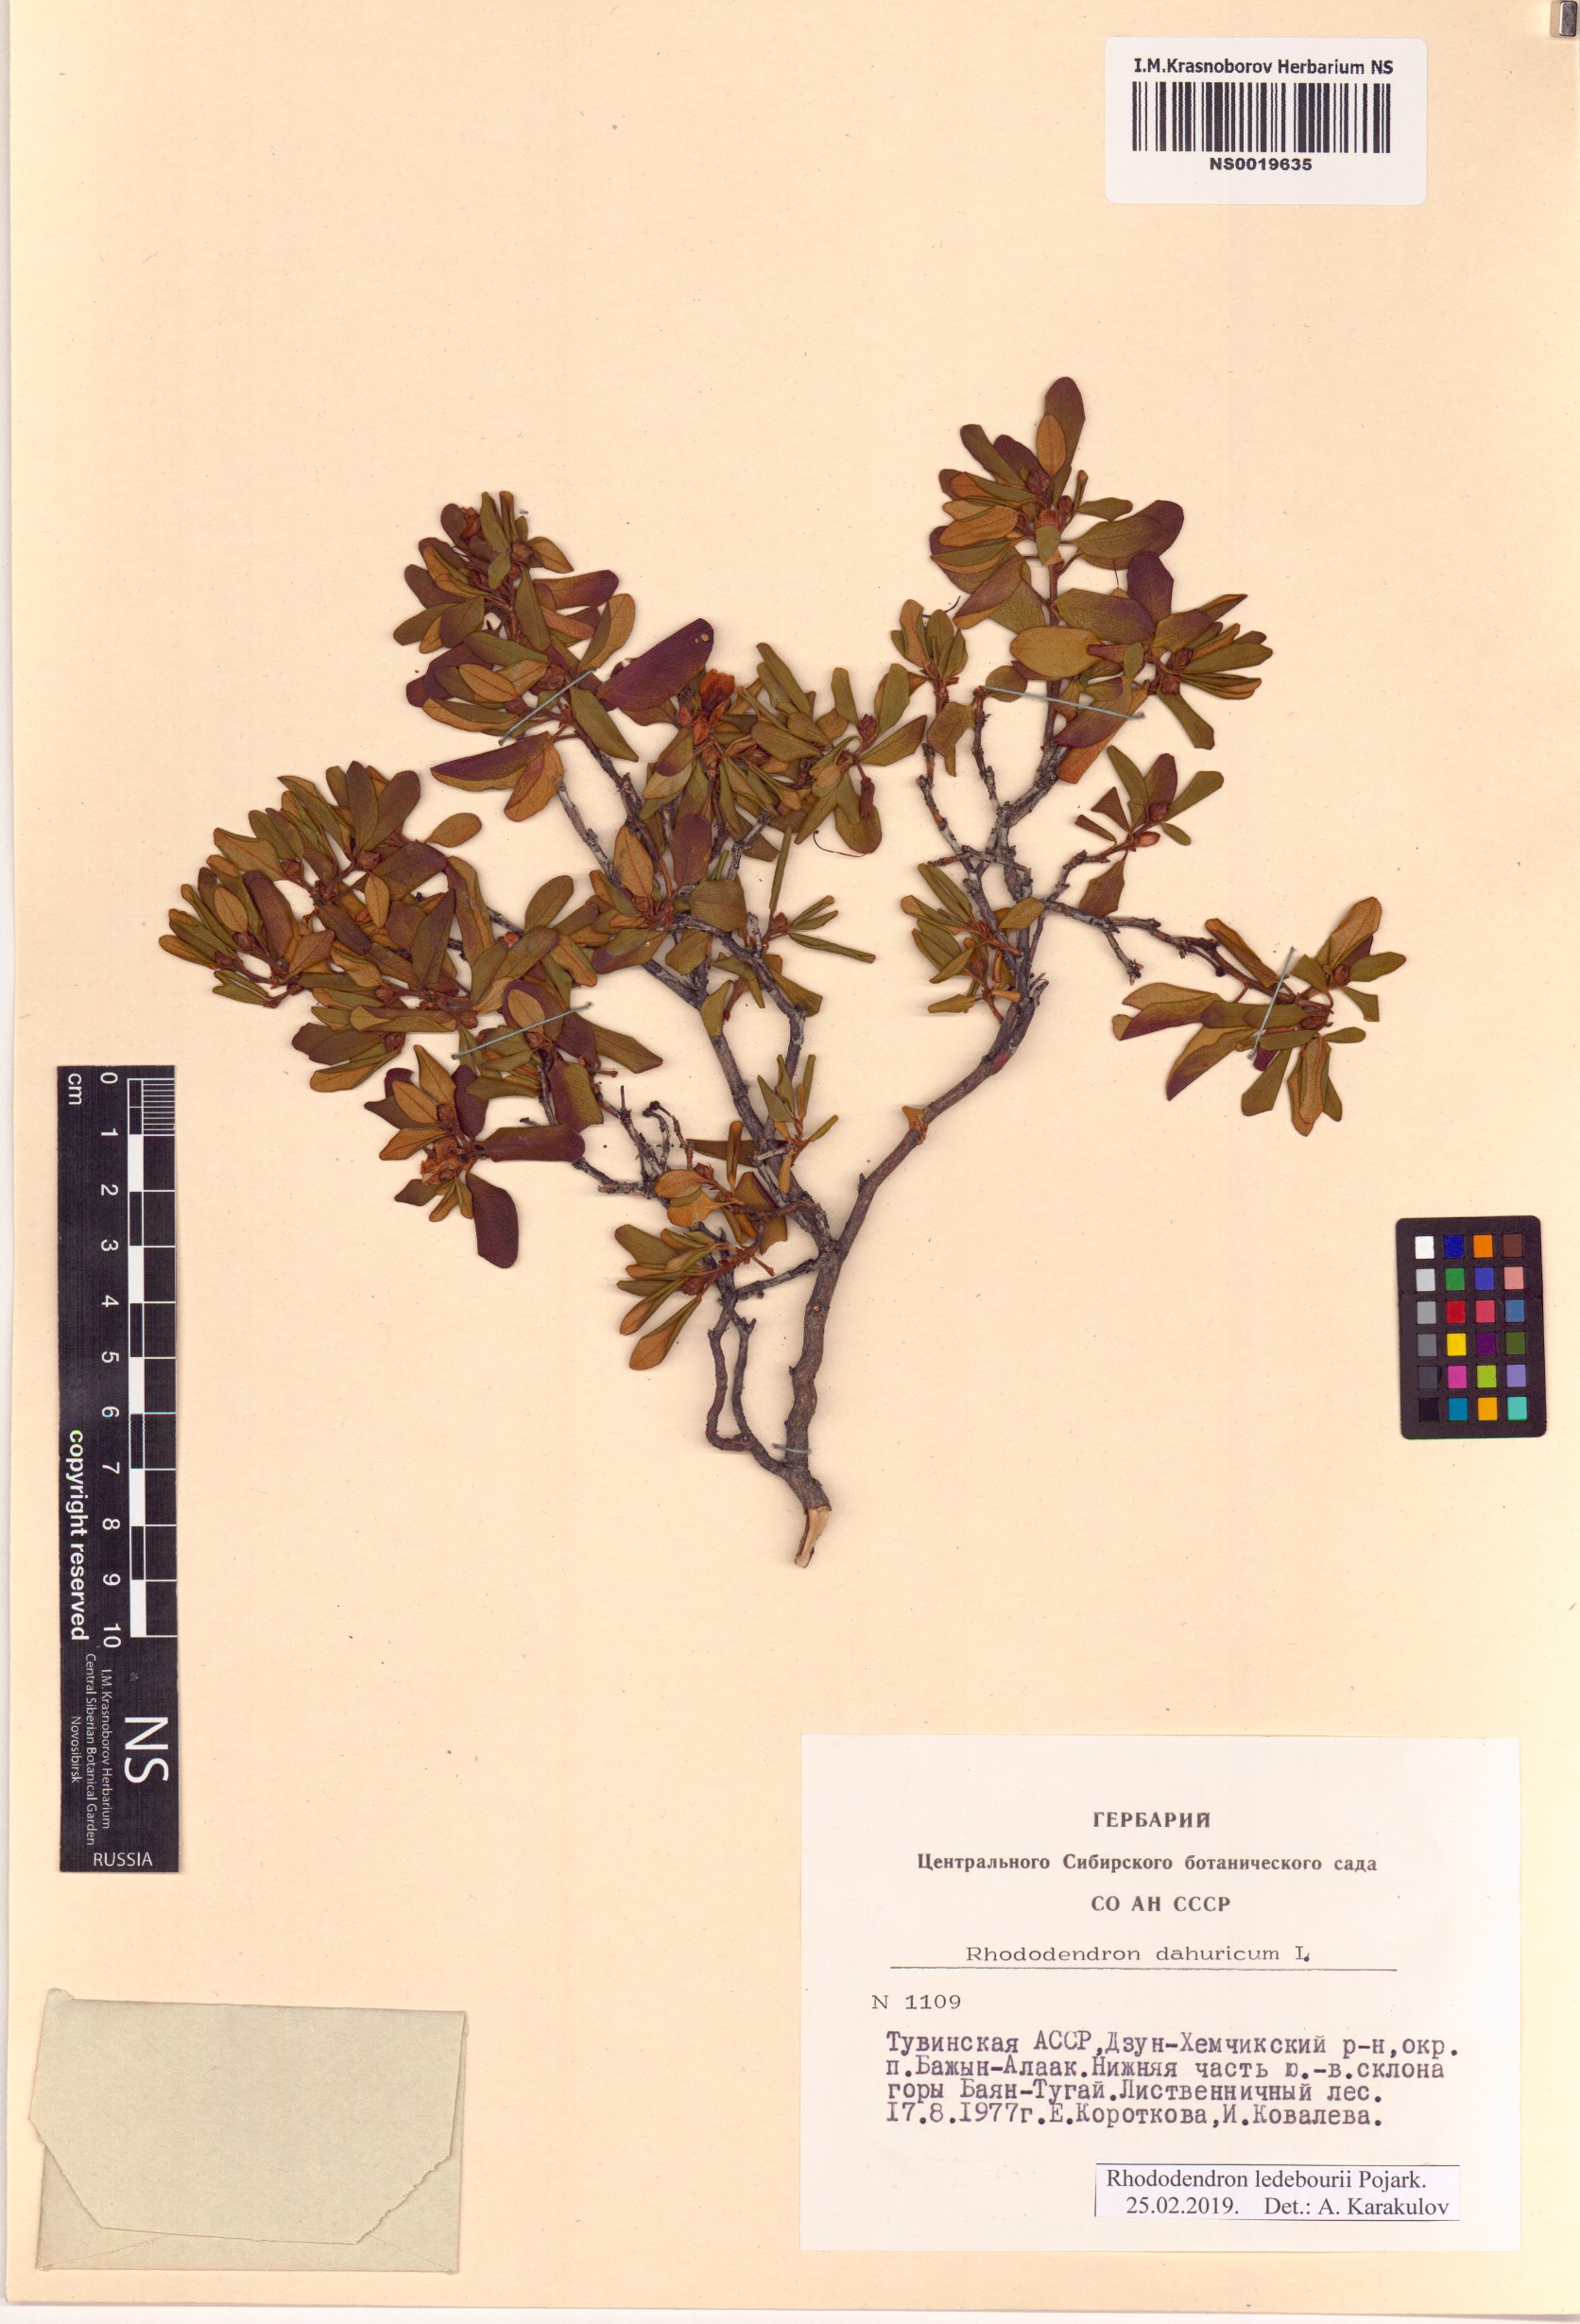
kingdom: Plantae
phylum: Tracheophyta
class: Magnoliopsida
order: Ericales
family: Ericaceae
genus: Rhododendron
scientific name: Rhododendron dauricum
